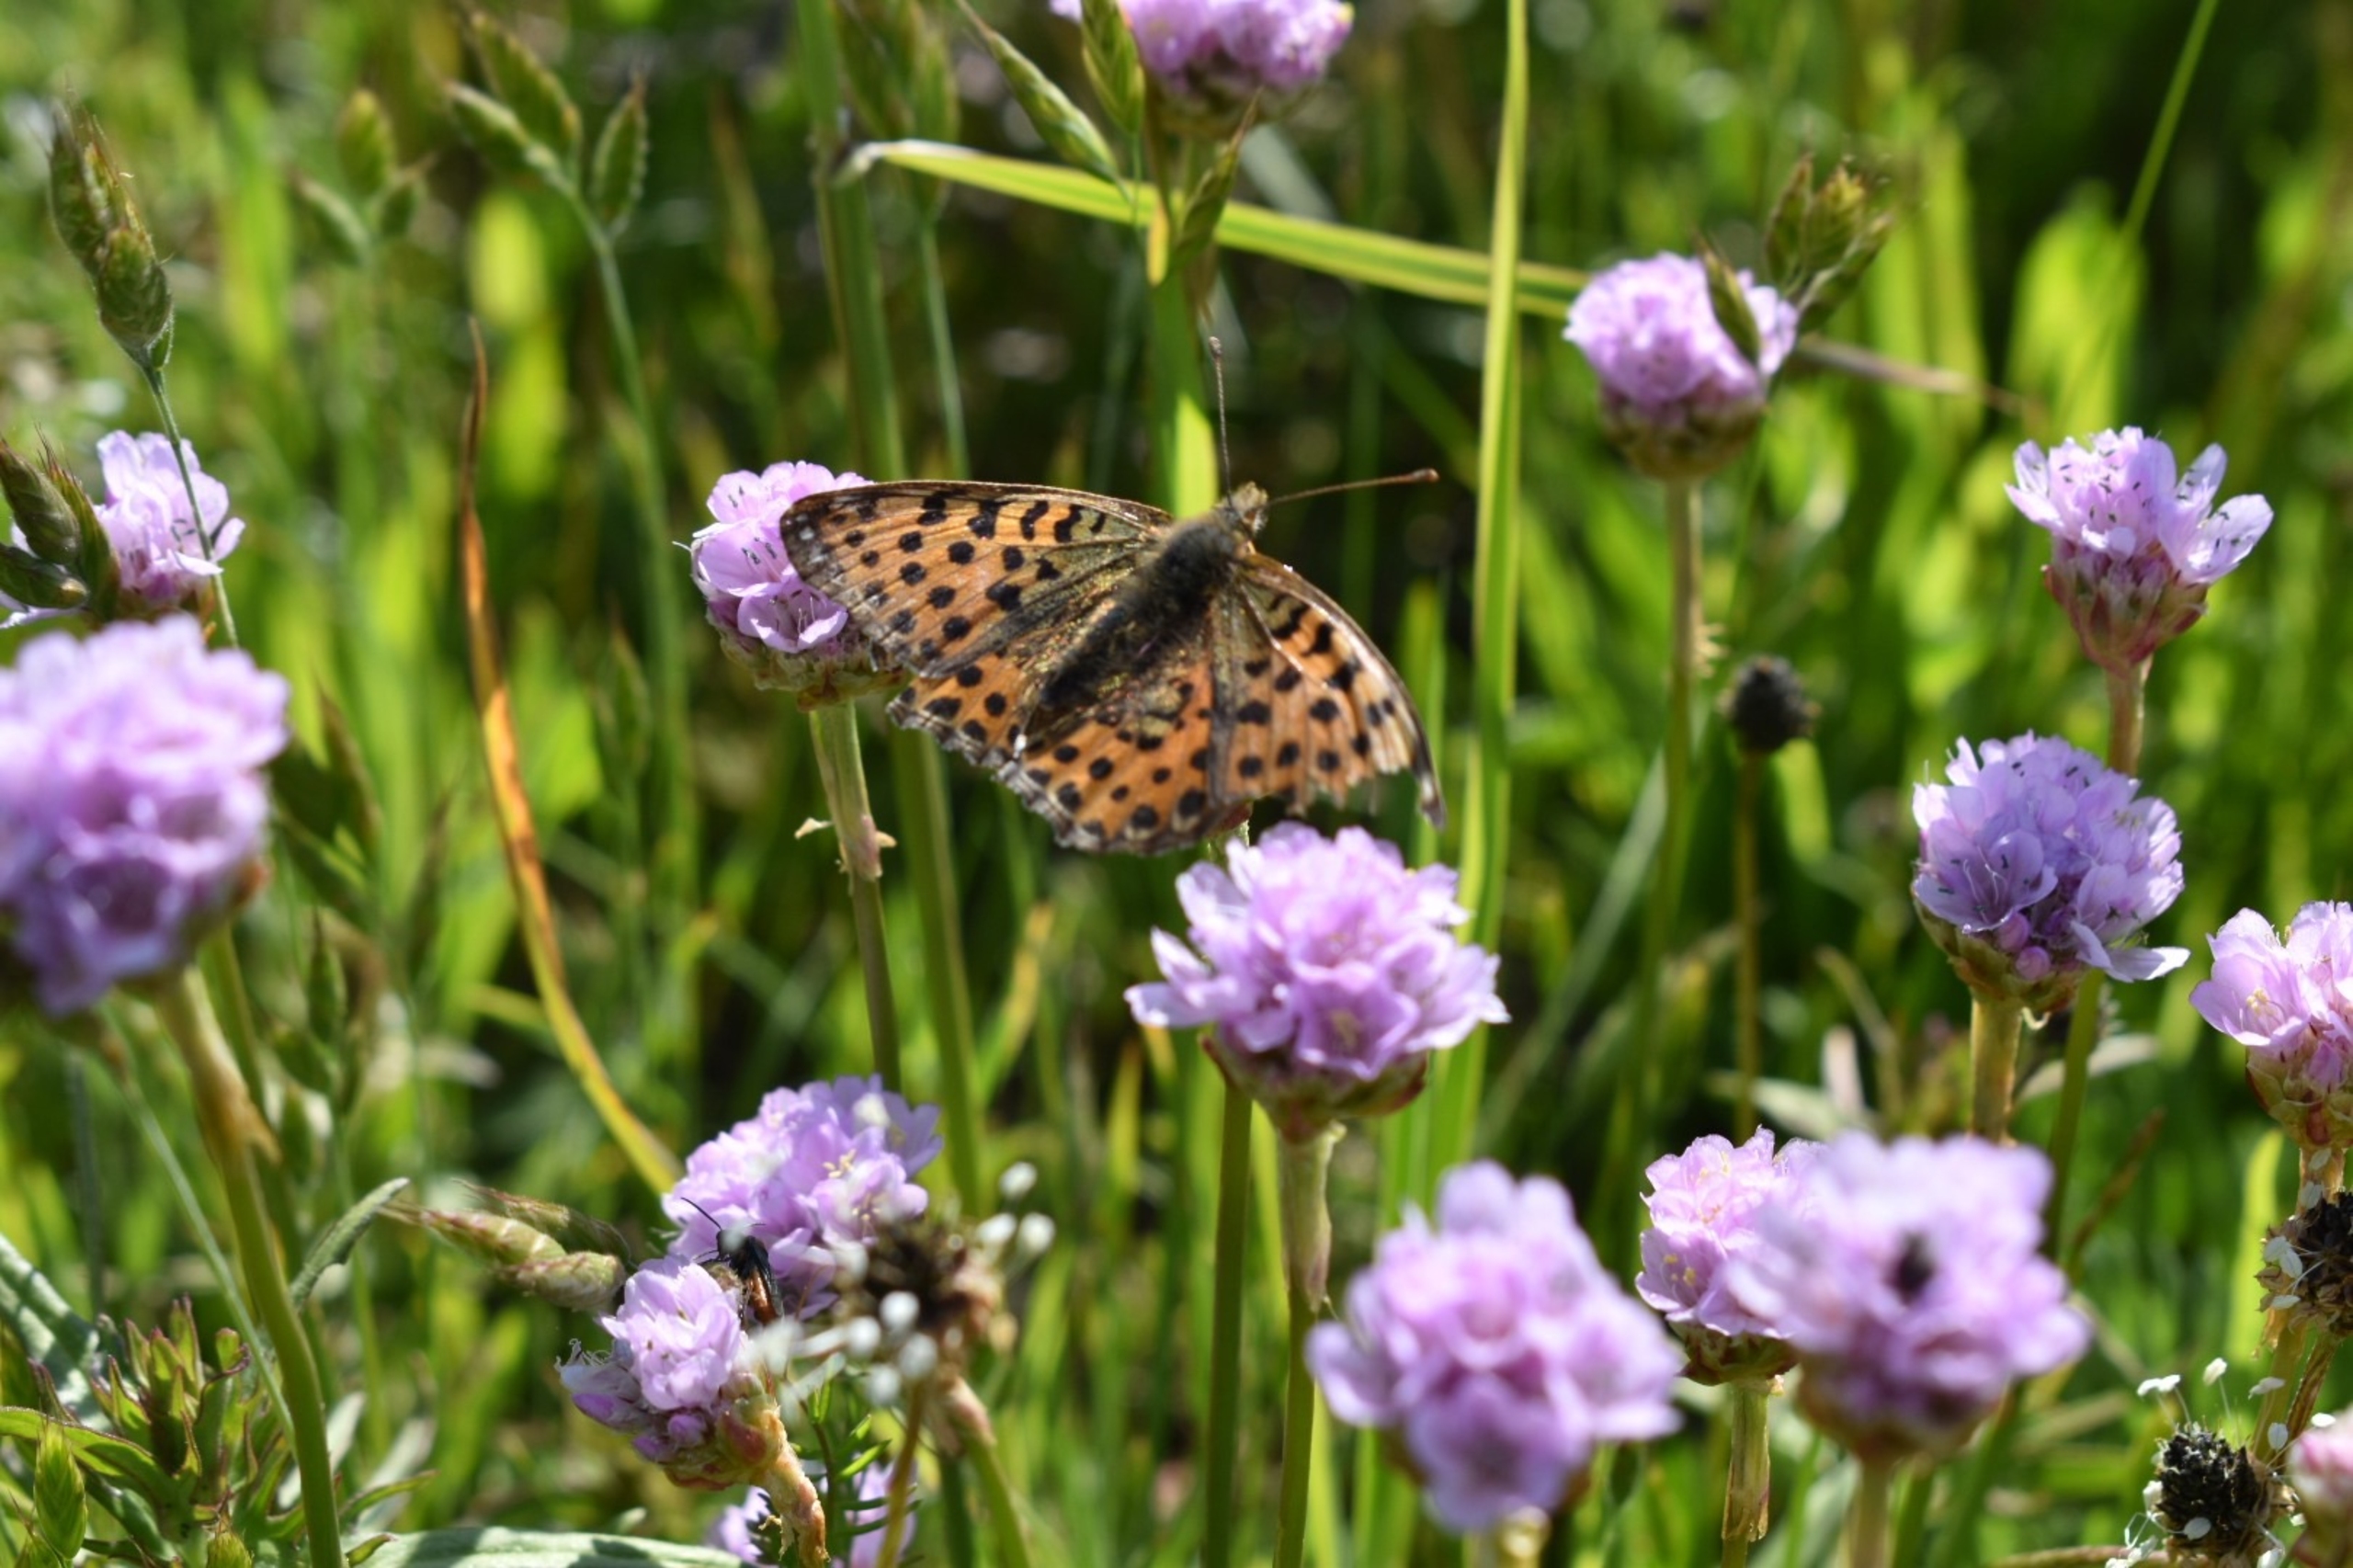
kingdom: Animalia
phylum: Arthropoda
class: Insecta
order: Lepidoptera
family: Nymphalidae
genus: Issoria
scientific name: Issoria lathonia
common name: Storplettet perlemorsommerfugl
